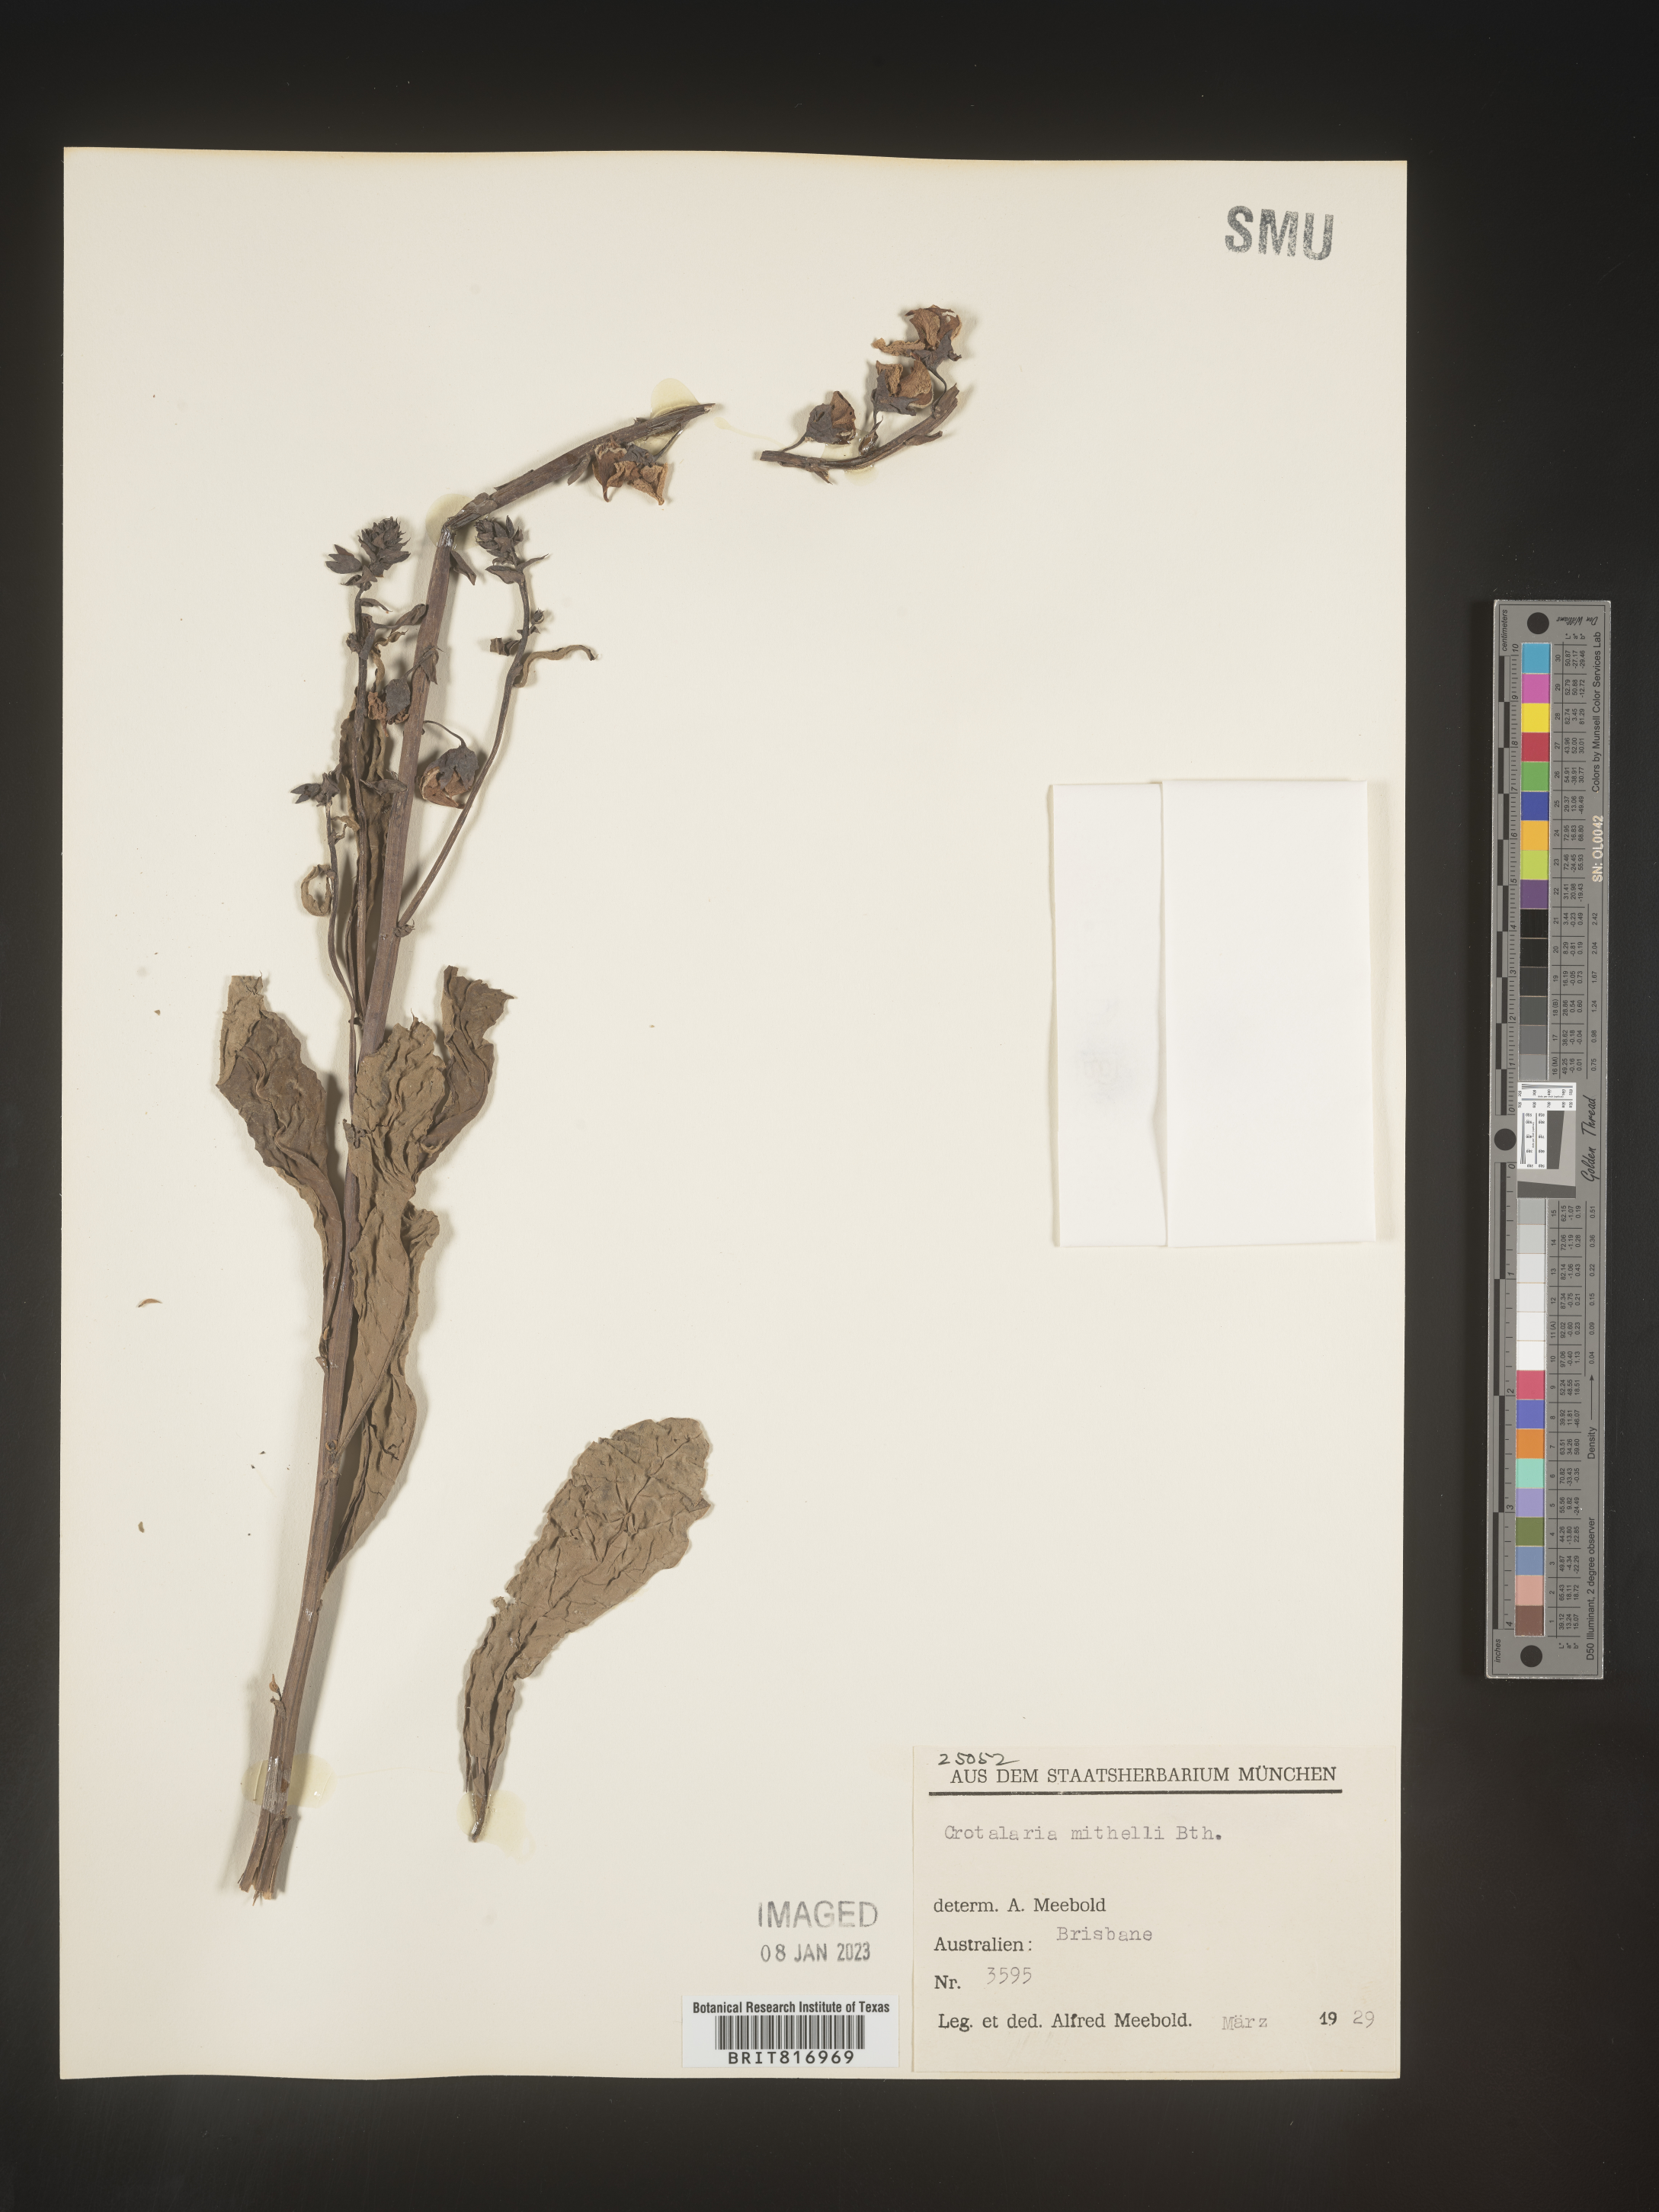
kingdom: Plantae
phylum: Tracheophyta
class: Magnoliopsida
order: Fabales
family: Fabaceae
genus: Crotalaria
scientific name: Crotalaria
